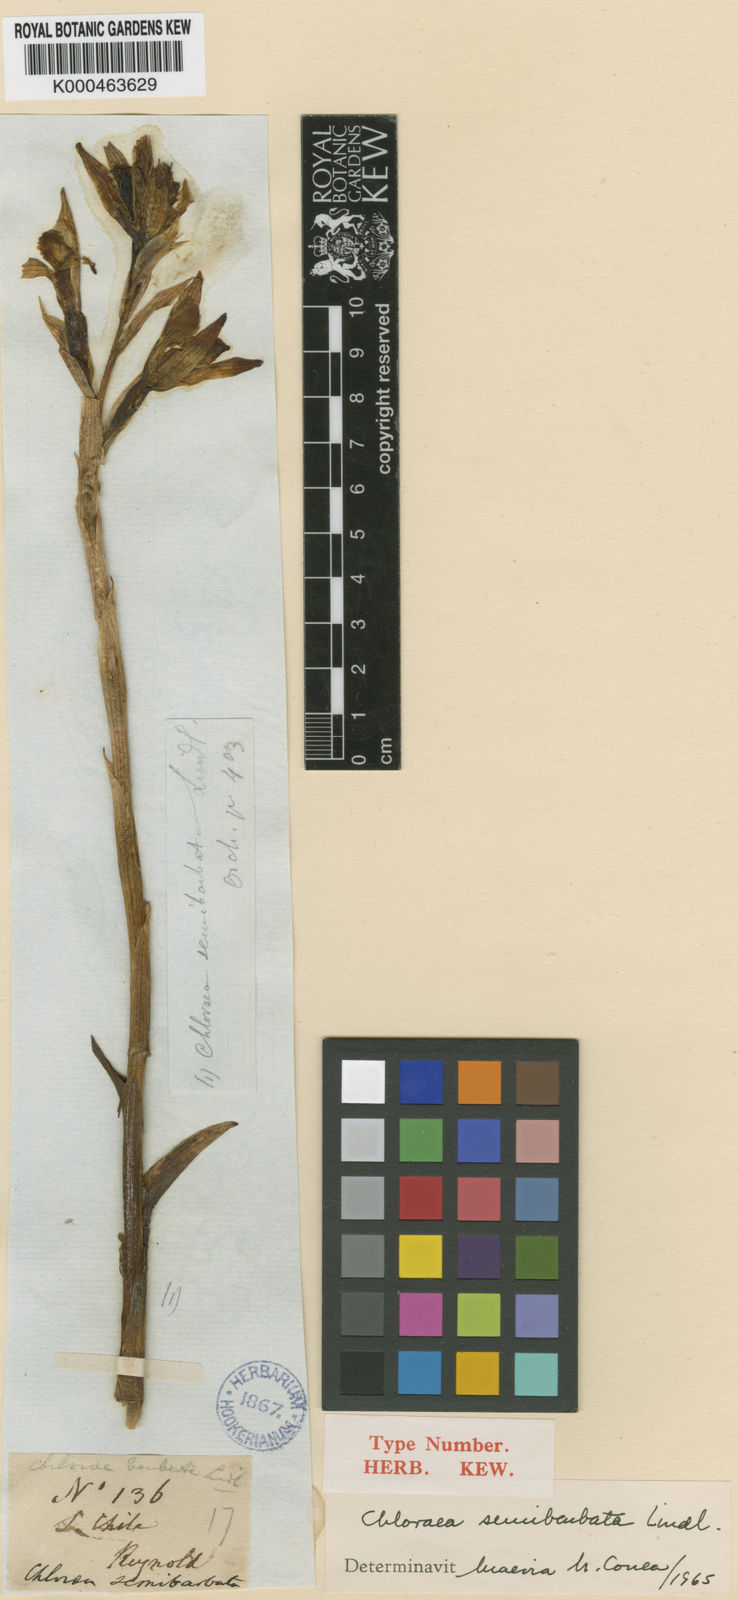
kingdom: Plantae
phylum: Tracheophyta
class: Liliopsida
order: Asparagales
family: Orchidaceae
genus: Chloraea
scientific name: Chloraea lamellata
